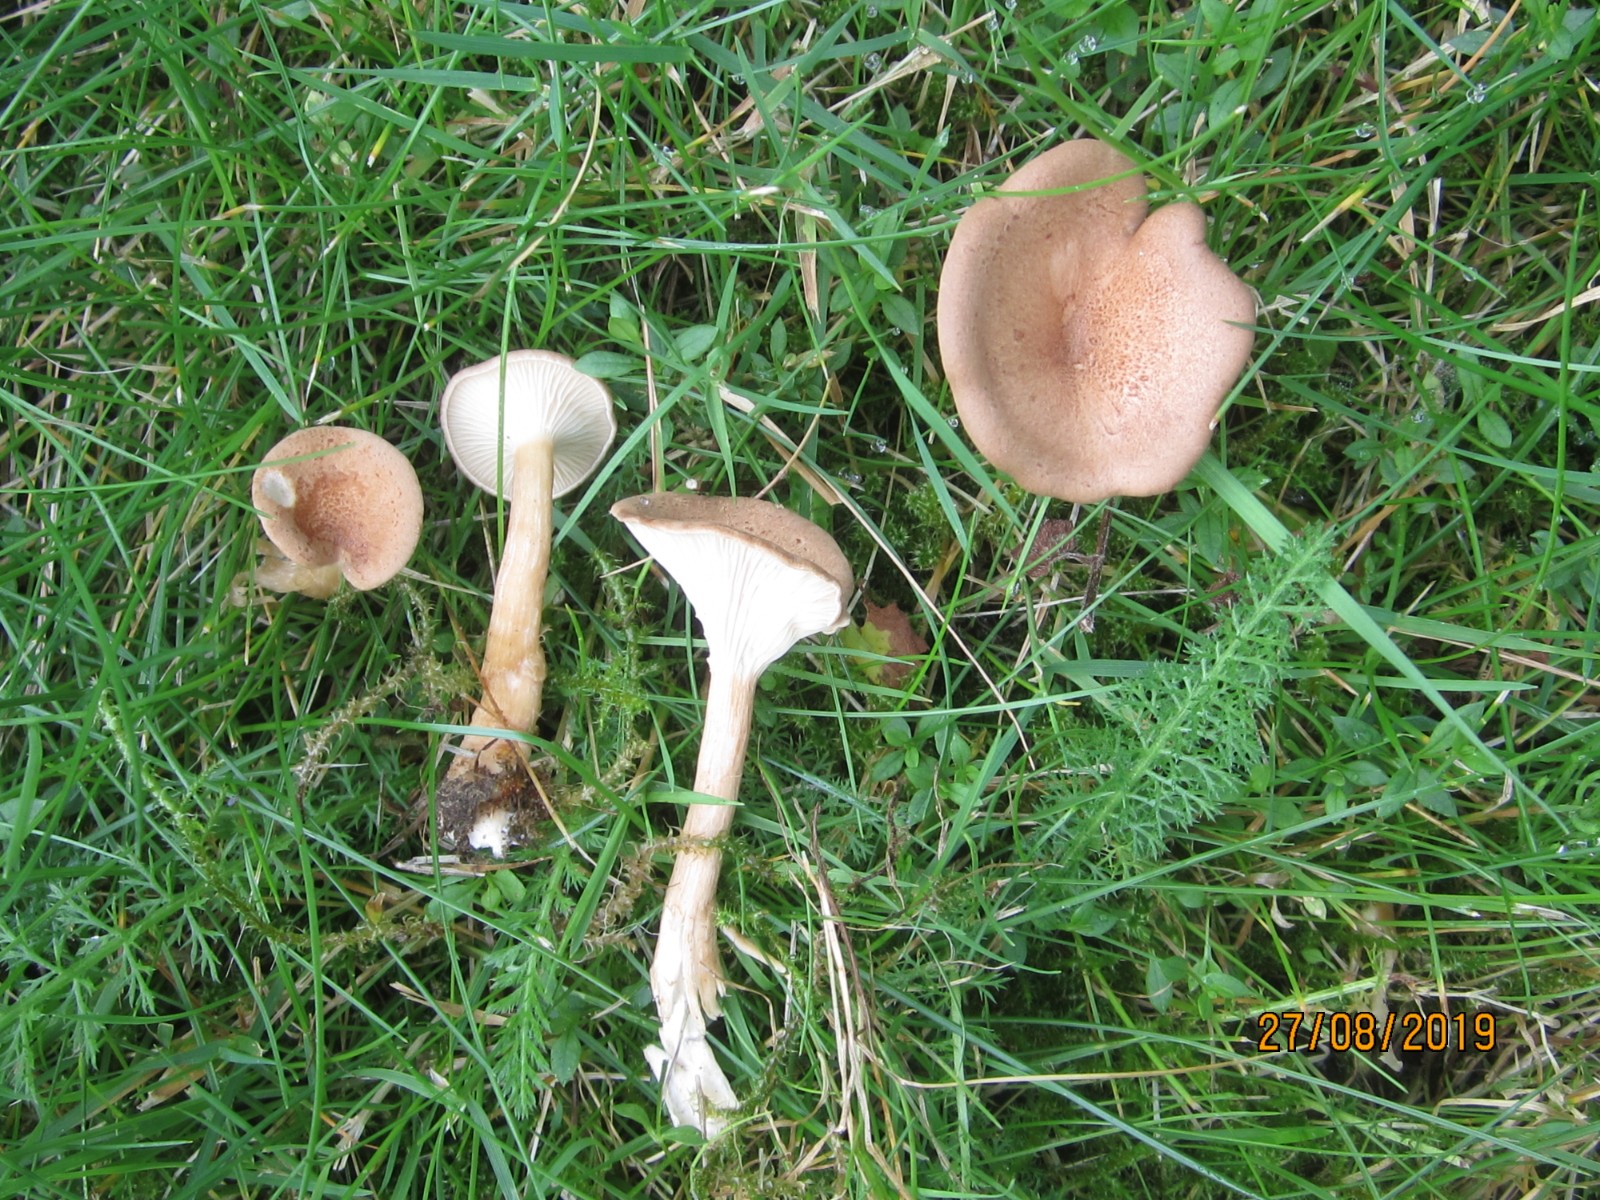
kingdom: Fungi
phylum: Basidiomycota
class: Agaricomycetes
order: Agaricales
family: Tricholomataceae
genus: Infundibulicybe
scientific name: Infundibulicybe gibba
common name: almindelig tragthat
